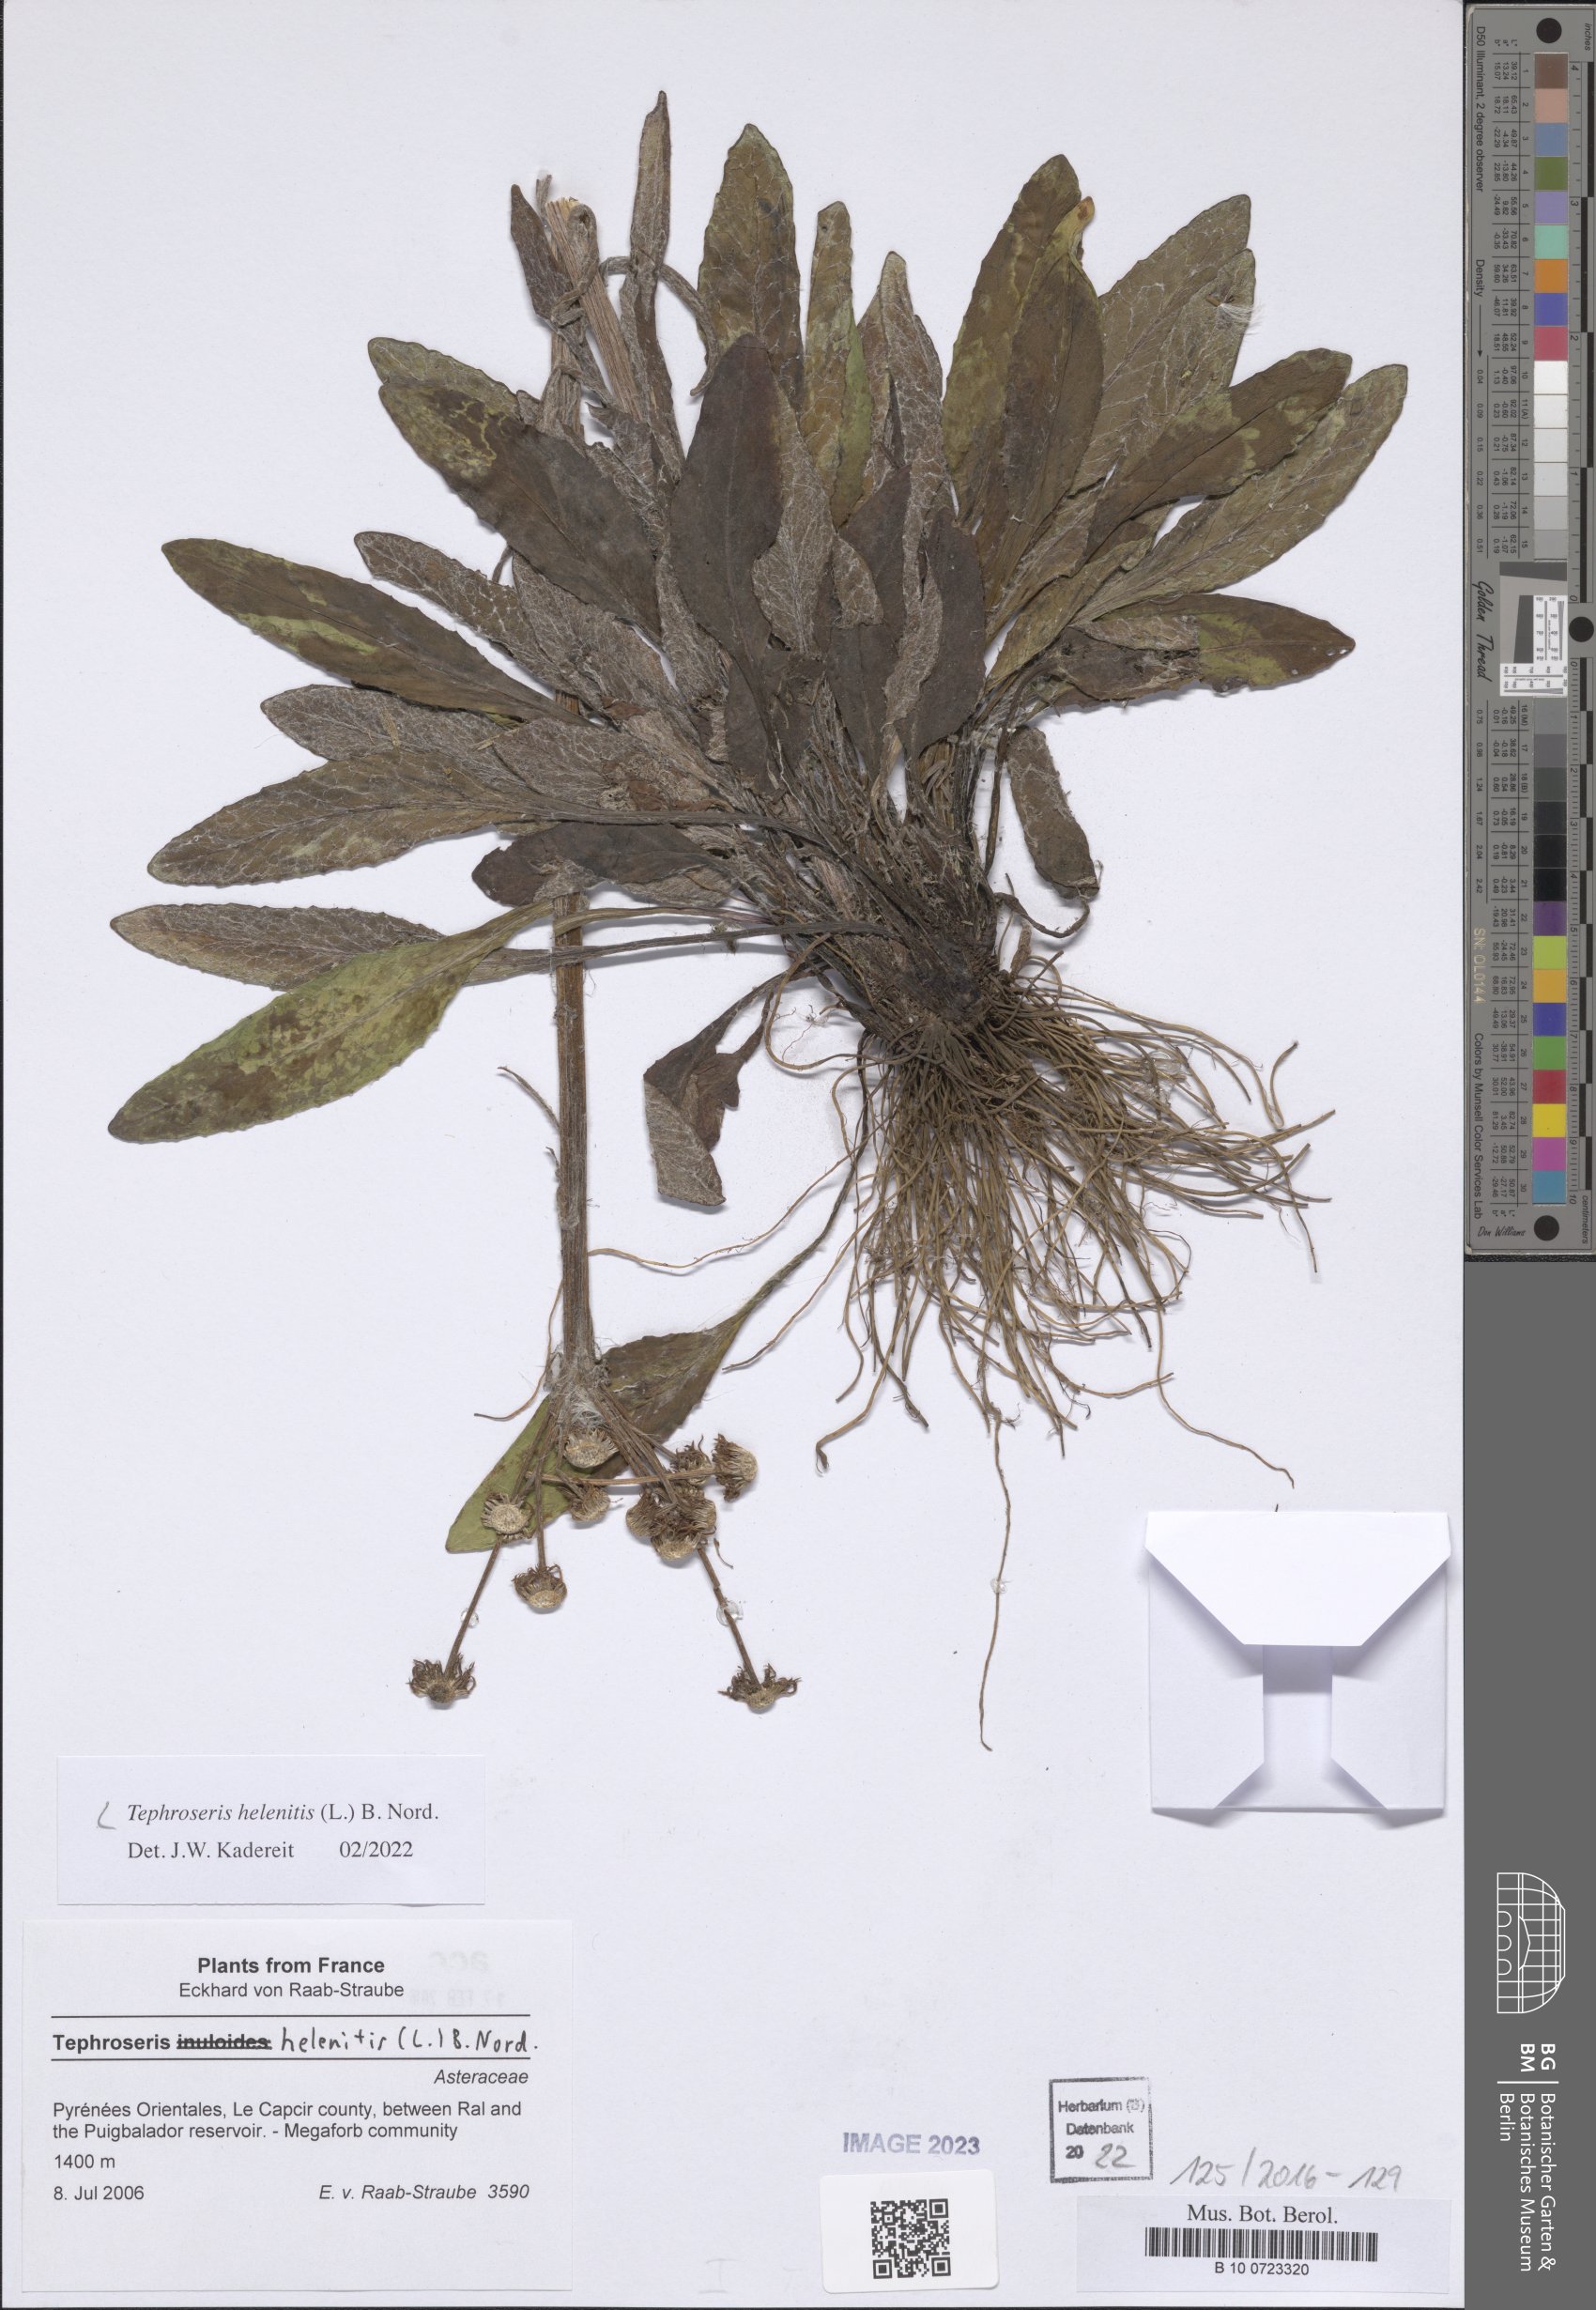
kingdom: Plantae
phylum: Tracheophyta
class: Magnoliopsida
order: Asterales
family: Asteraceae
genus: Tephroseris
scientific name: Tephroseris helenitis
